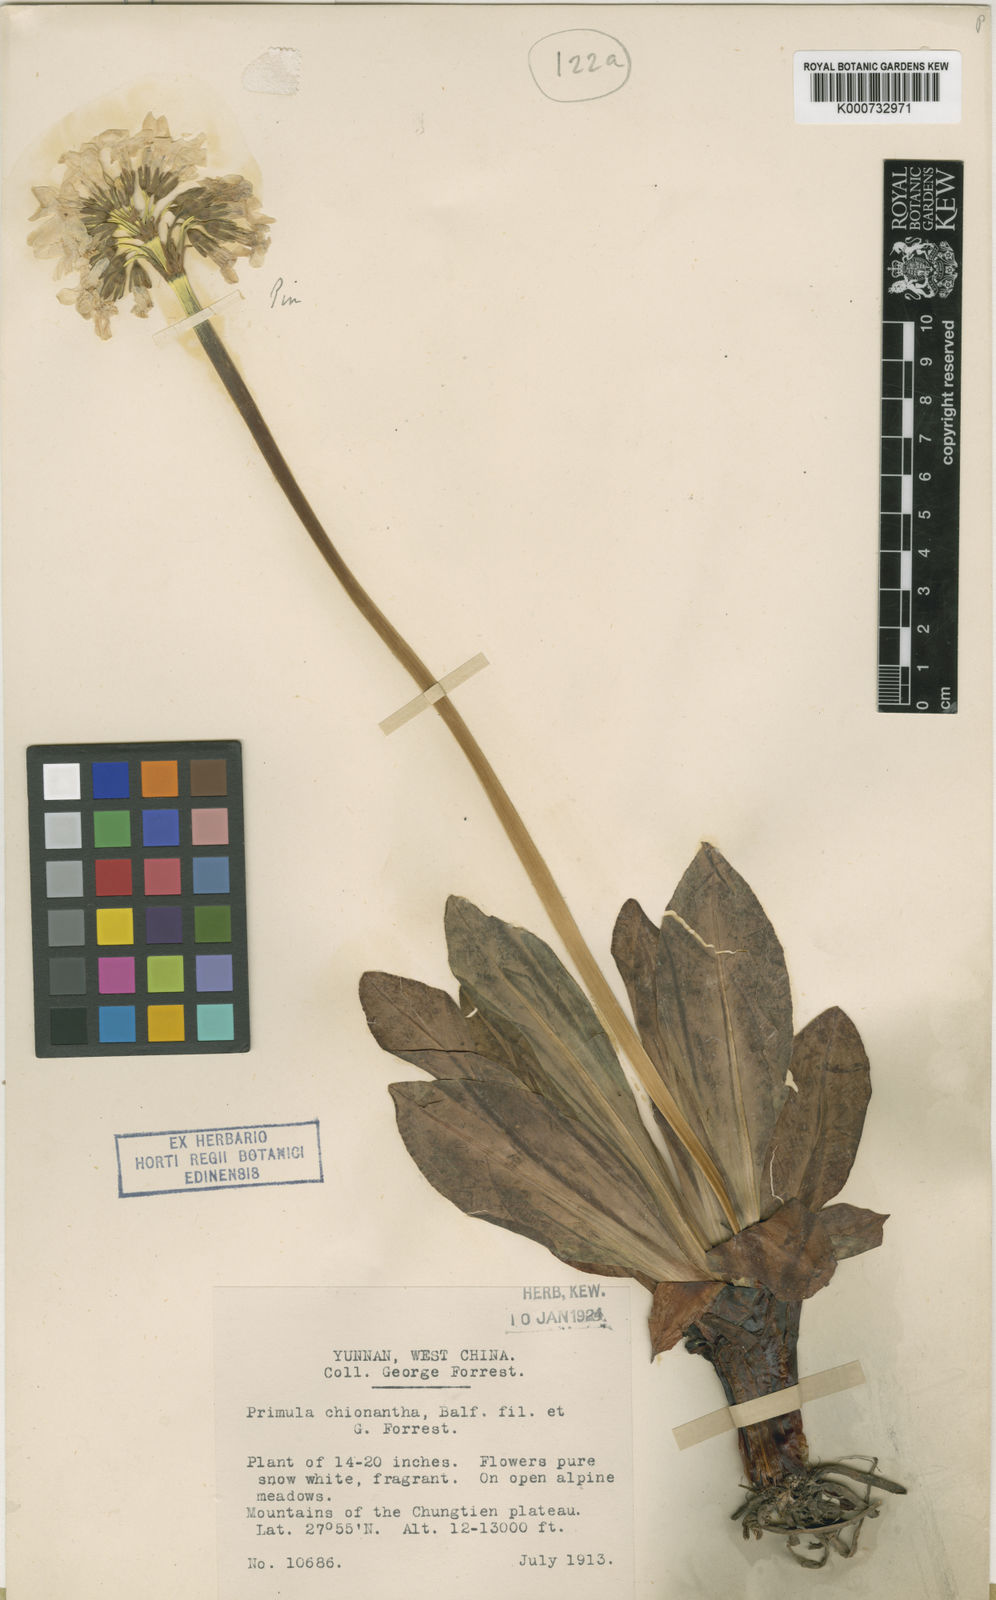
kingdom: Plantae
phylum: Tracheophyta
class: Magnoliopsida
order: Ericales
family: Primulaceae
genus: Primula
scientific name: Primula chionantha
